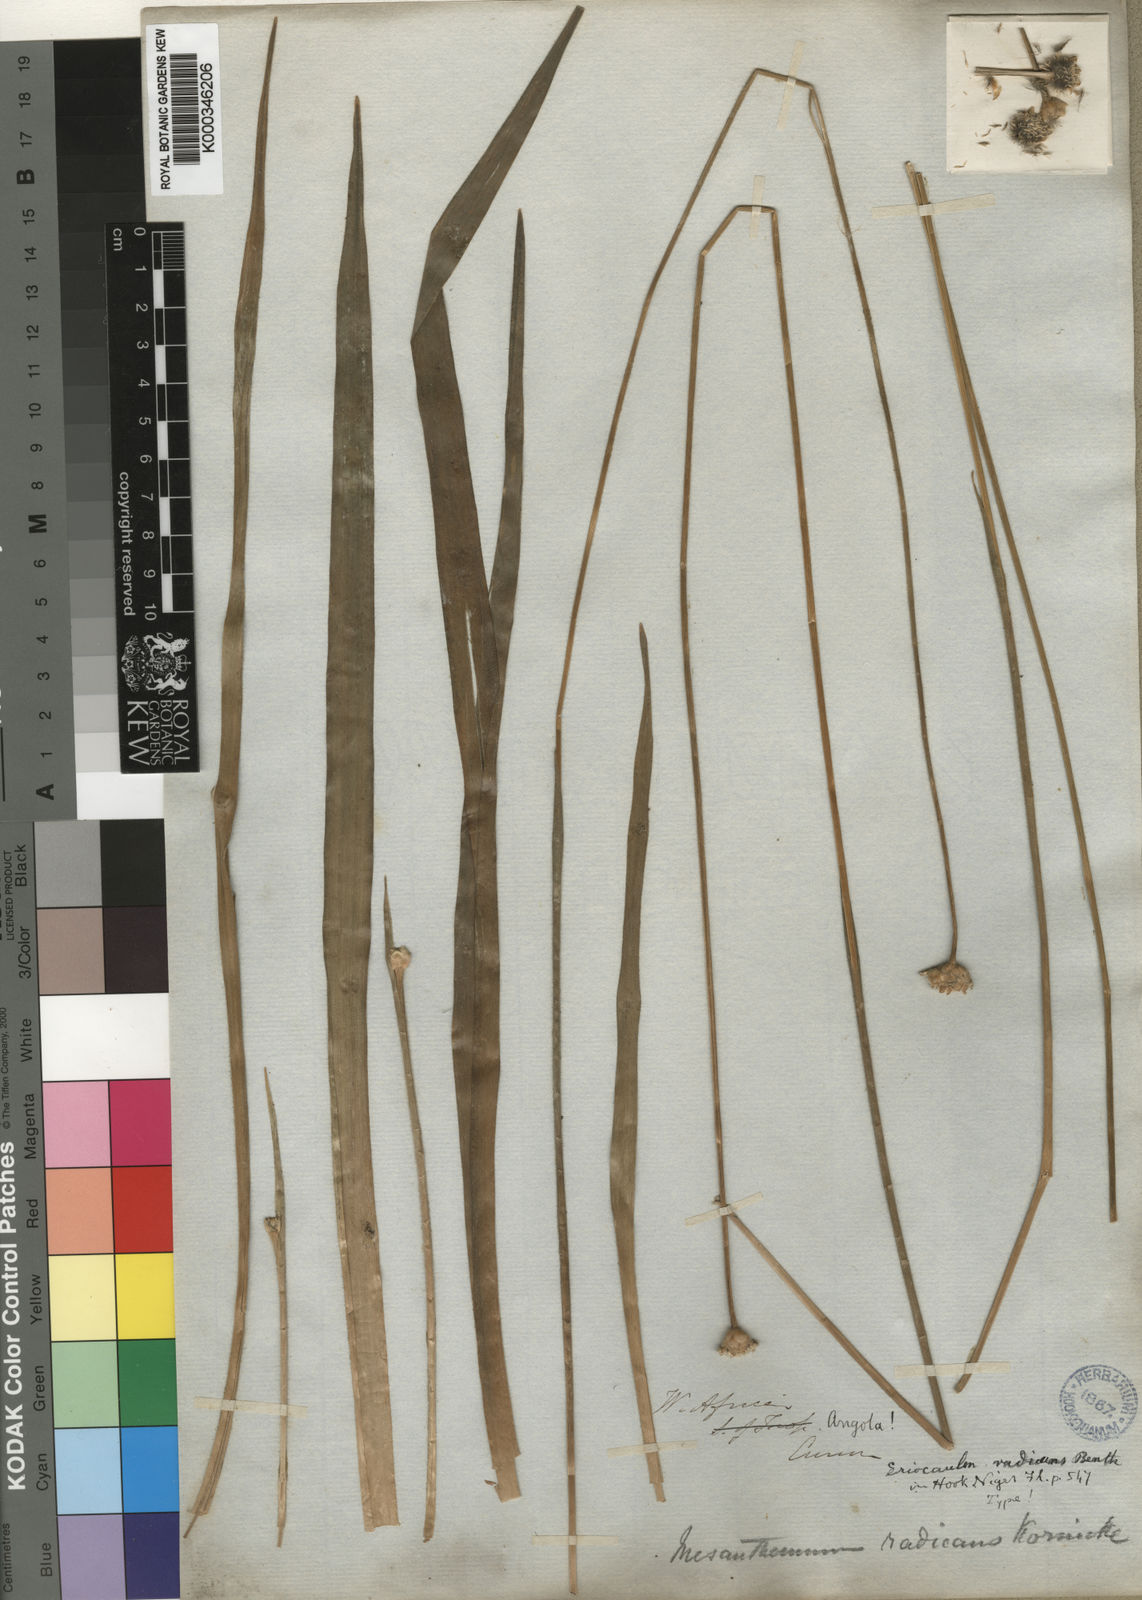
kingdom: Plantae
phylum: Tracheophyta
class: Liliopsida
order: Poales
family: Eriocaulaceae
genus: Mesanthemum
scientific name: Mesanthemum
